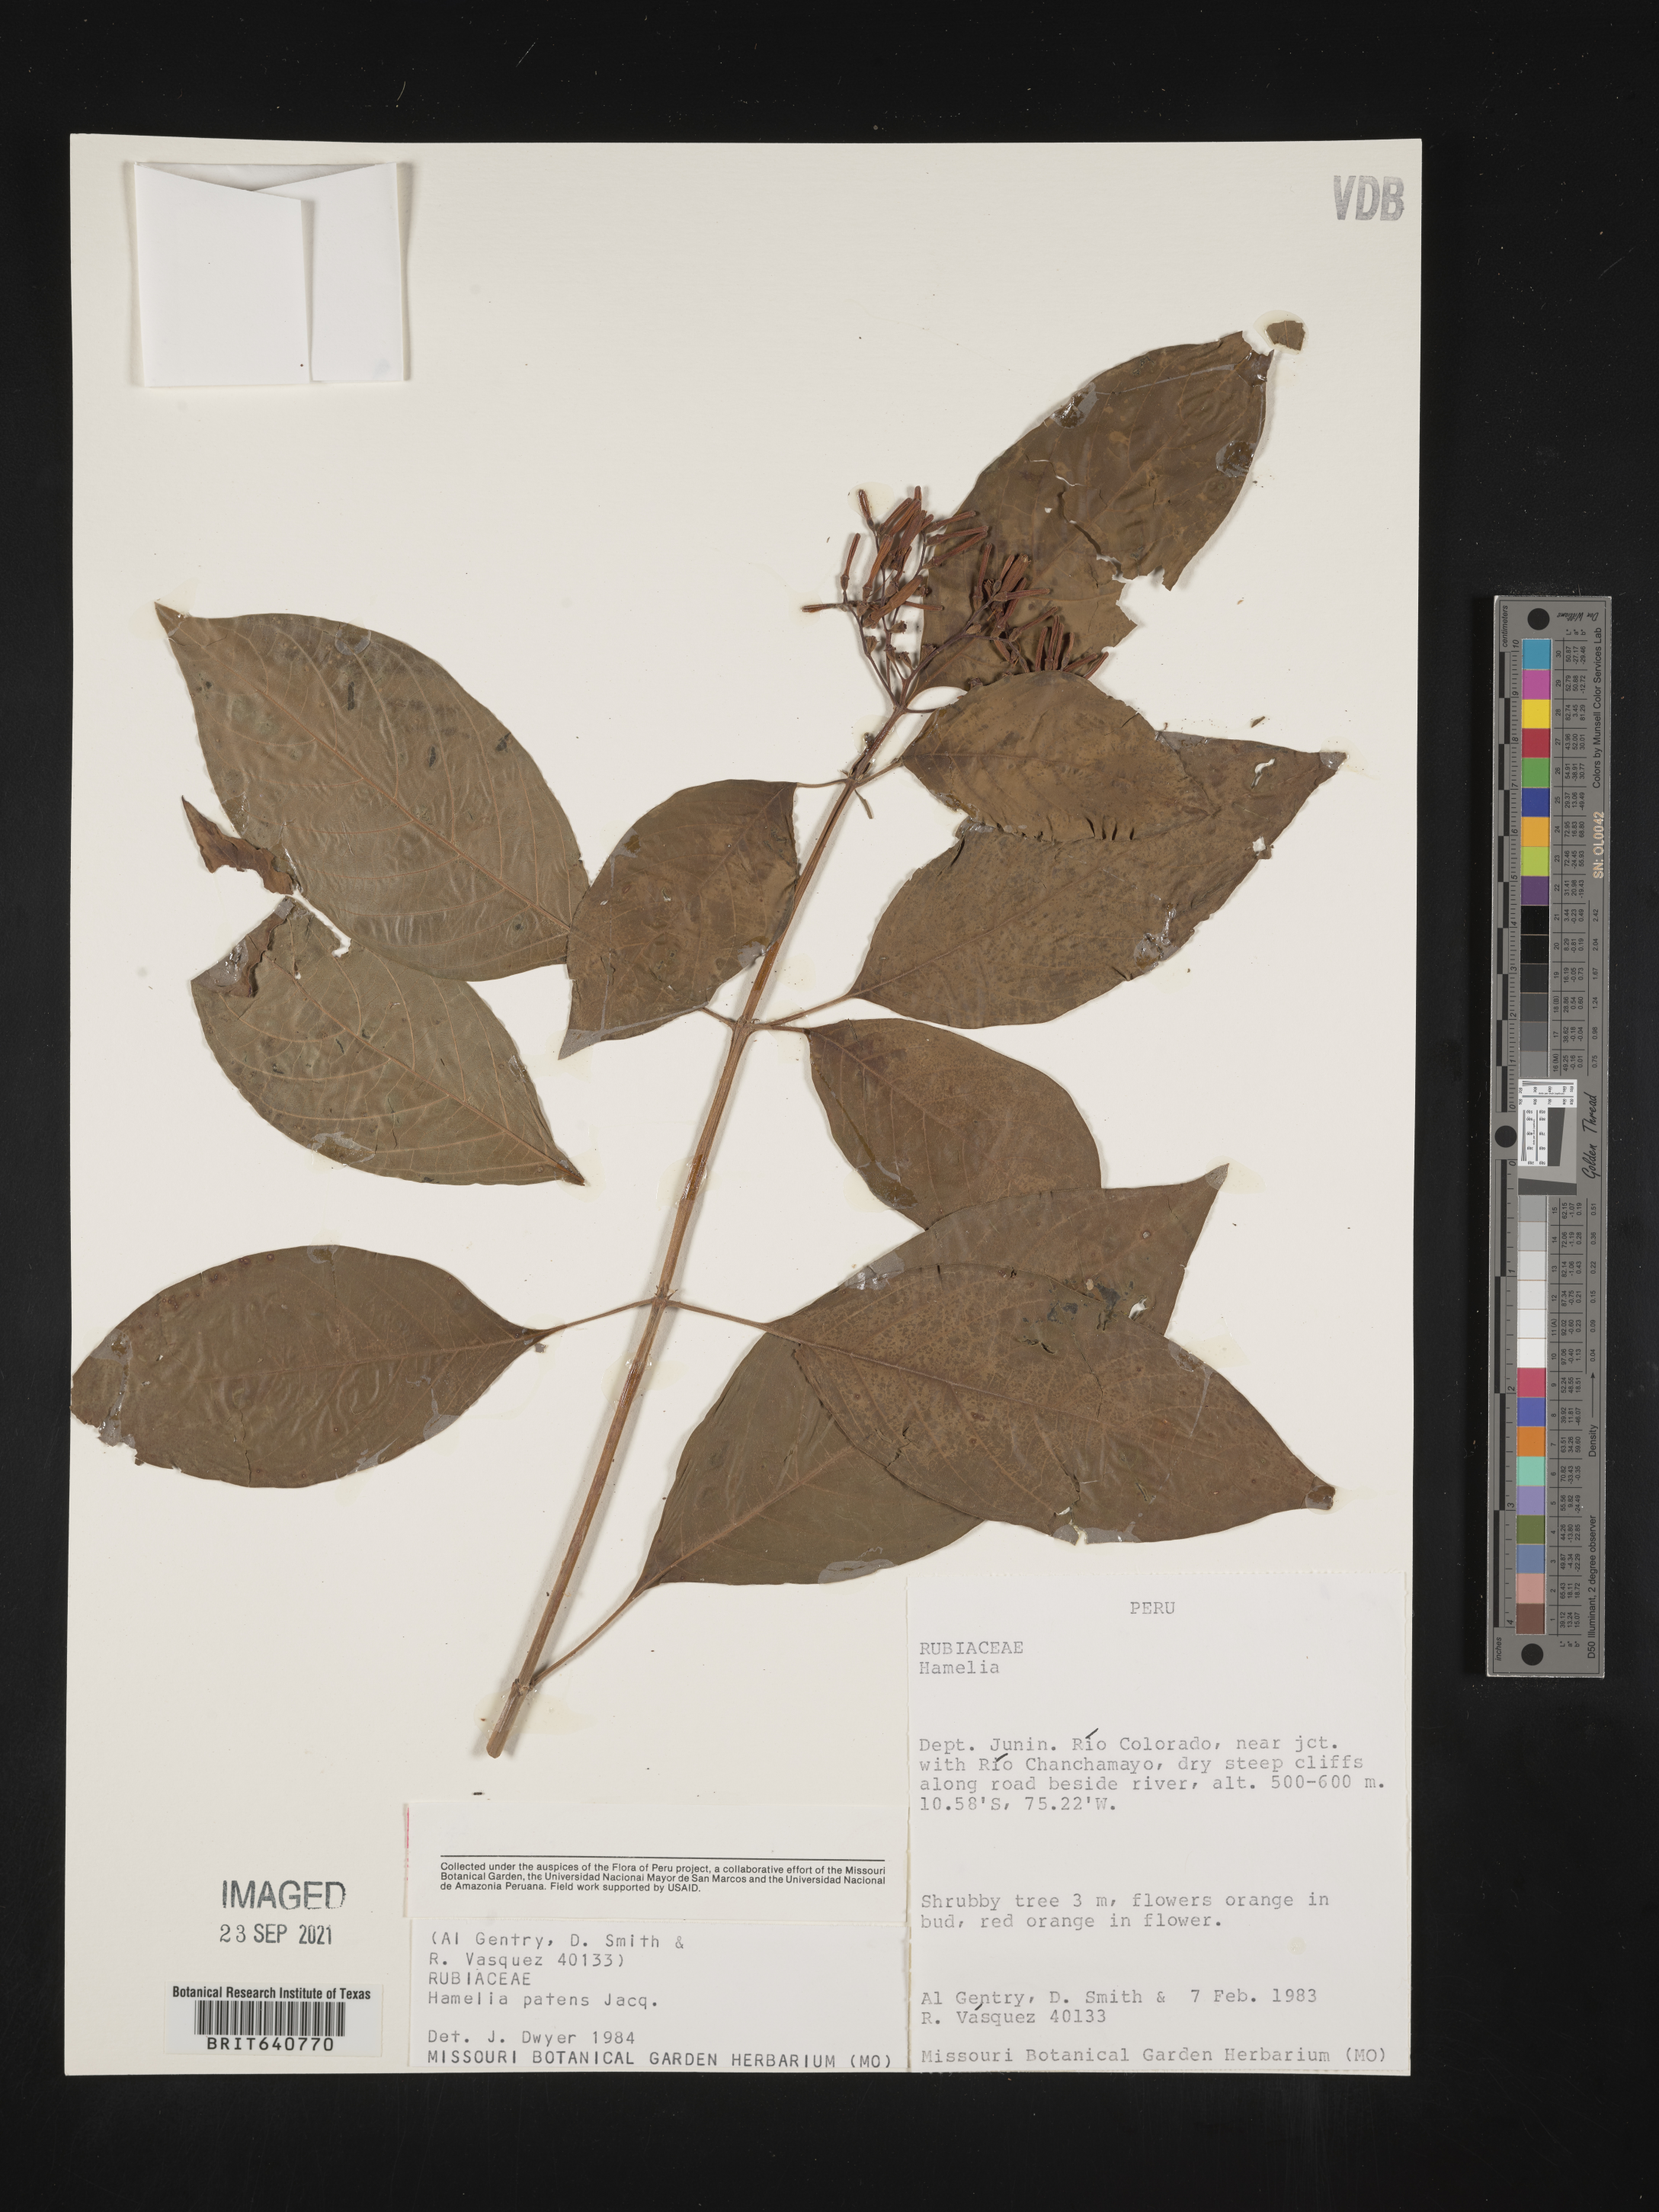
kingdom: Plantae
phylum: Tracheophyta
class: Magnoliopsida
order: Gentianales
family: Rubiaceae
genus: Hamelia
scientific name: Hamelia
